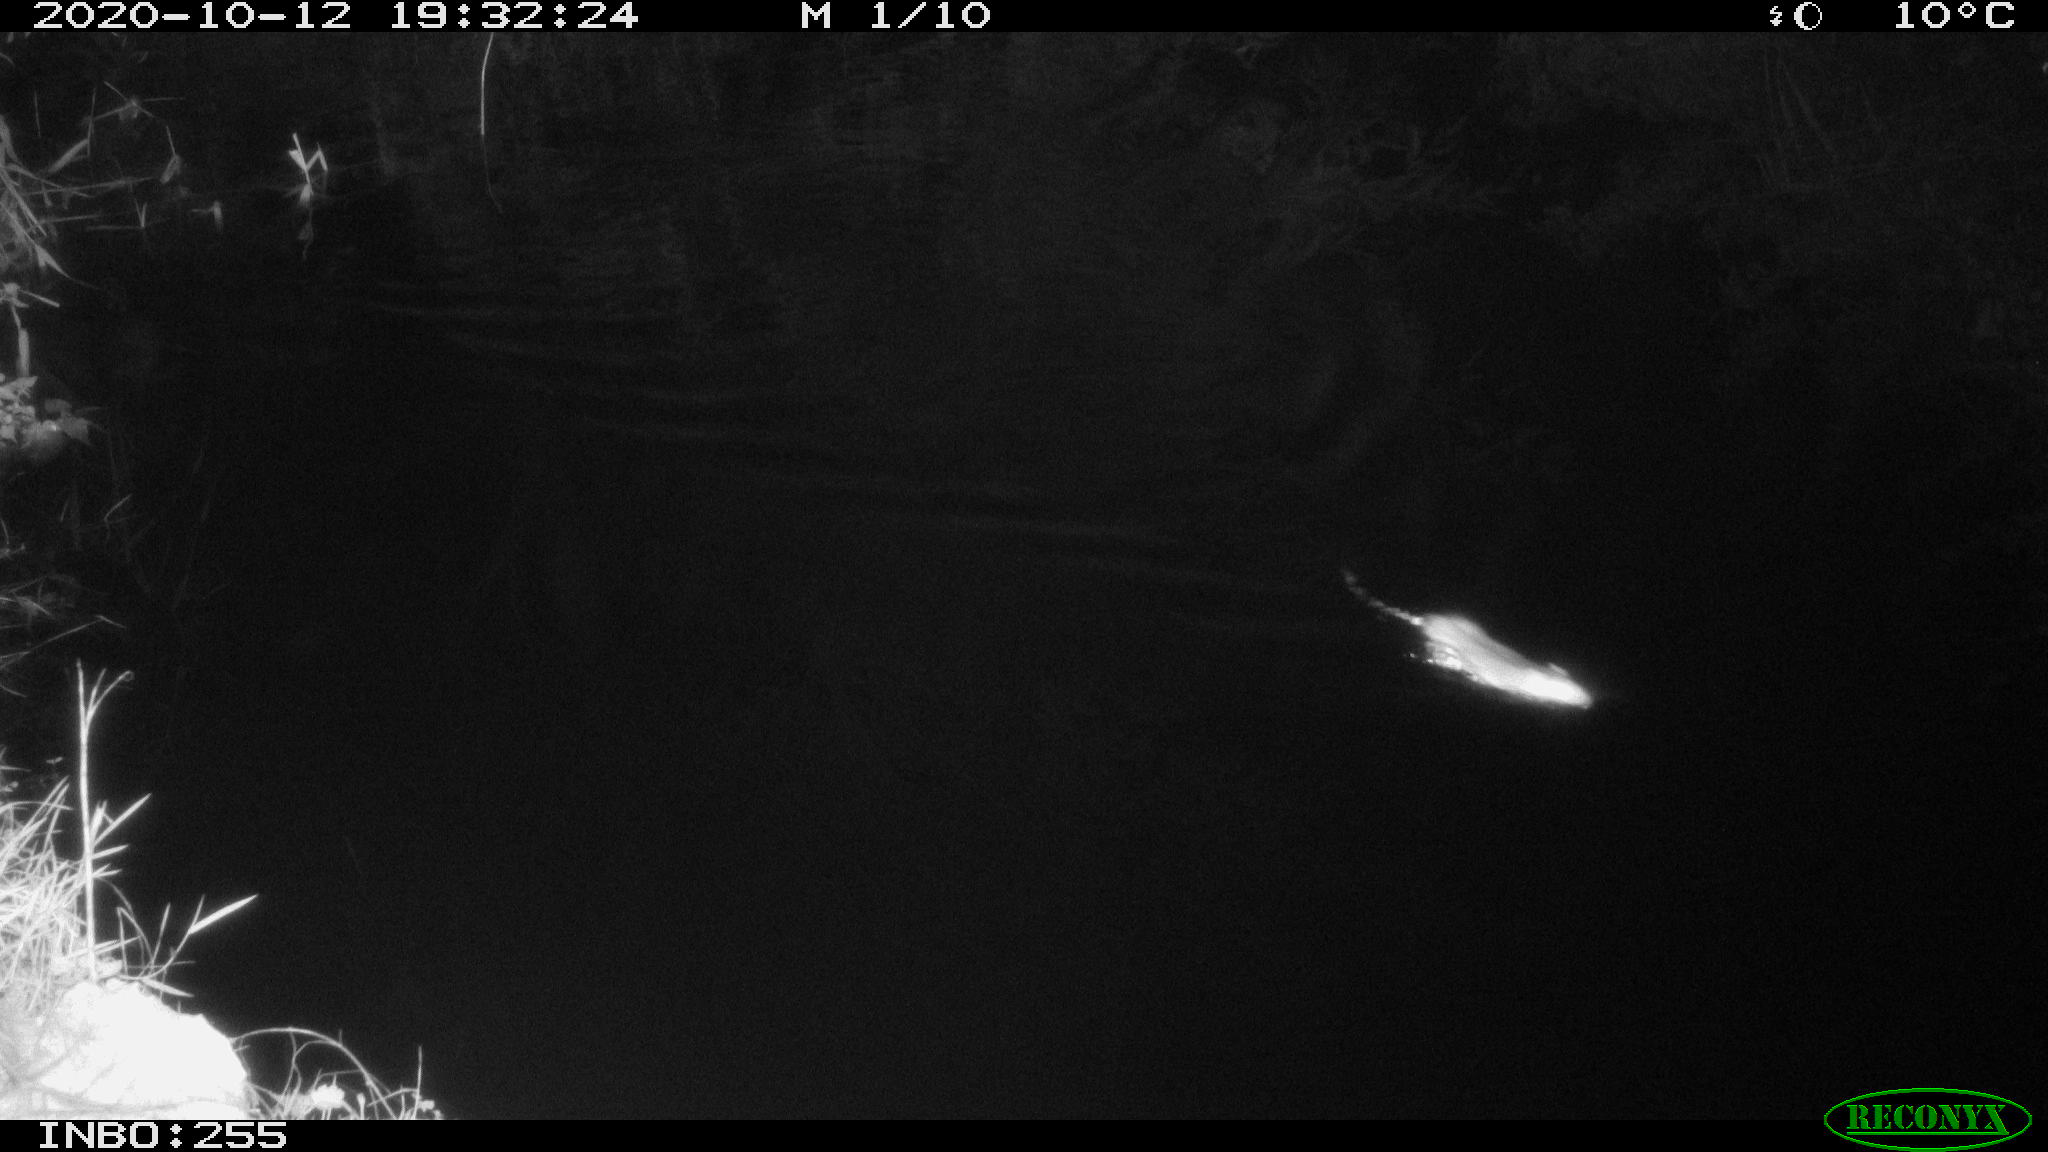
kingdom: Animalia
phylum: Chordata
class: Mammalia
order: Rodentia
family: Muridae
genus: Rattus
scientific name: Rattus norvegicus
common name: Brown rat
